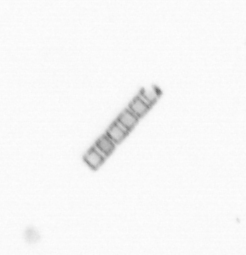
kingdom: Chromista
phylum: Ochrophyta
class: Bacillariophyceae
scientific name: Bacillariophyceae
